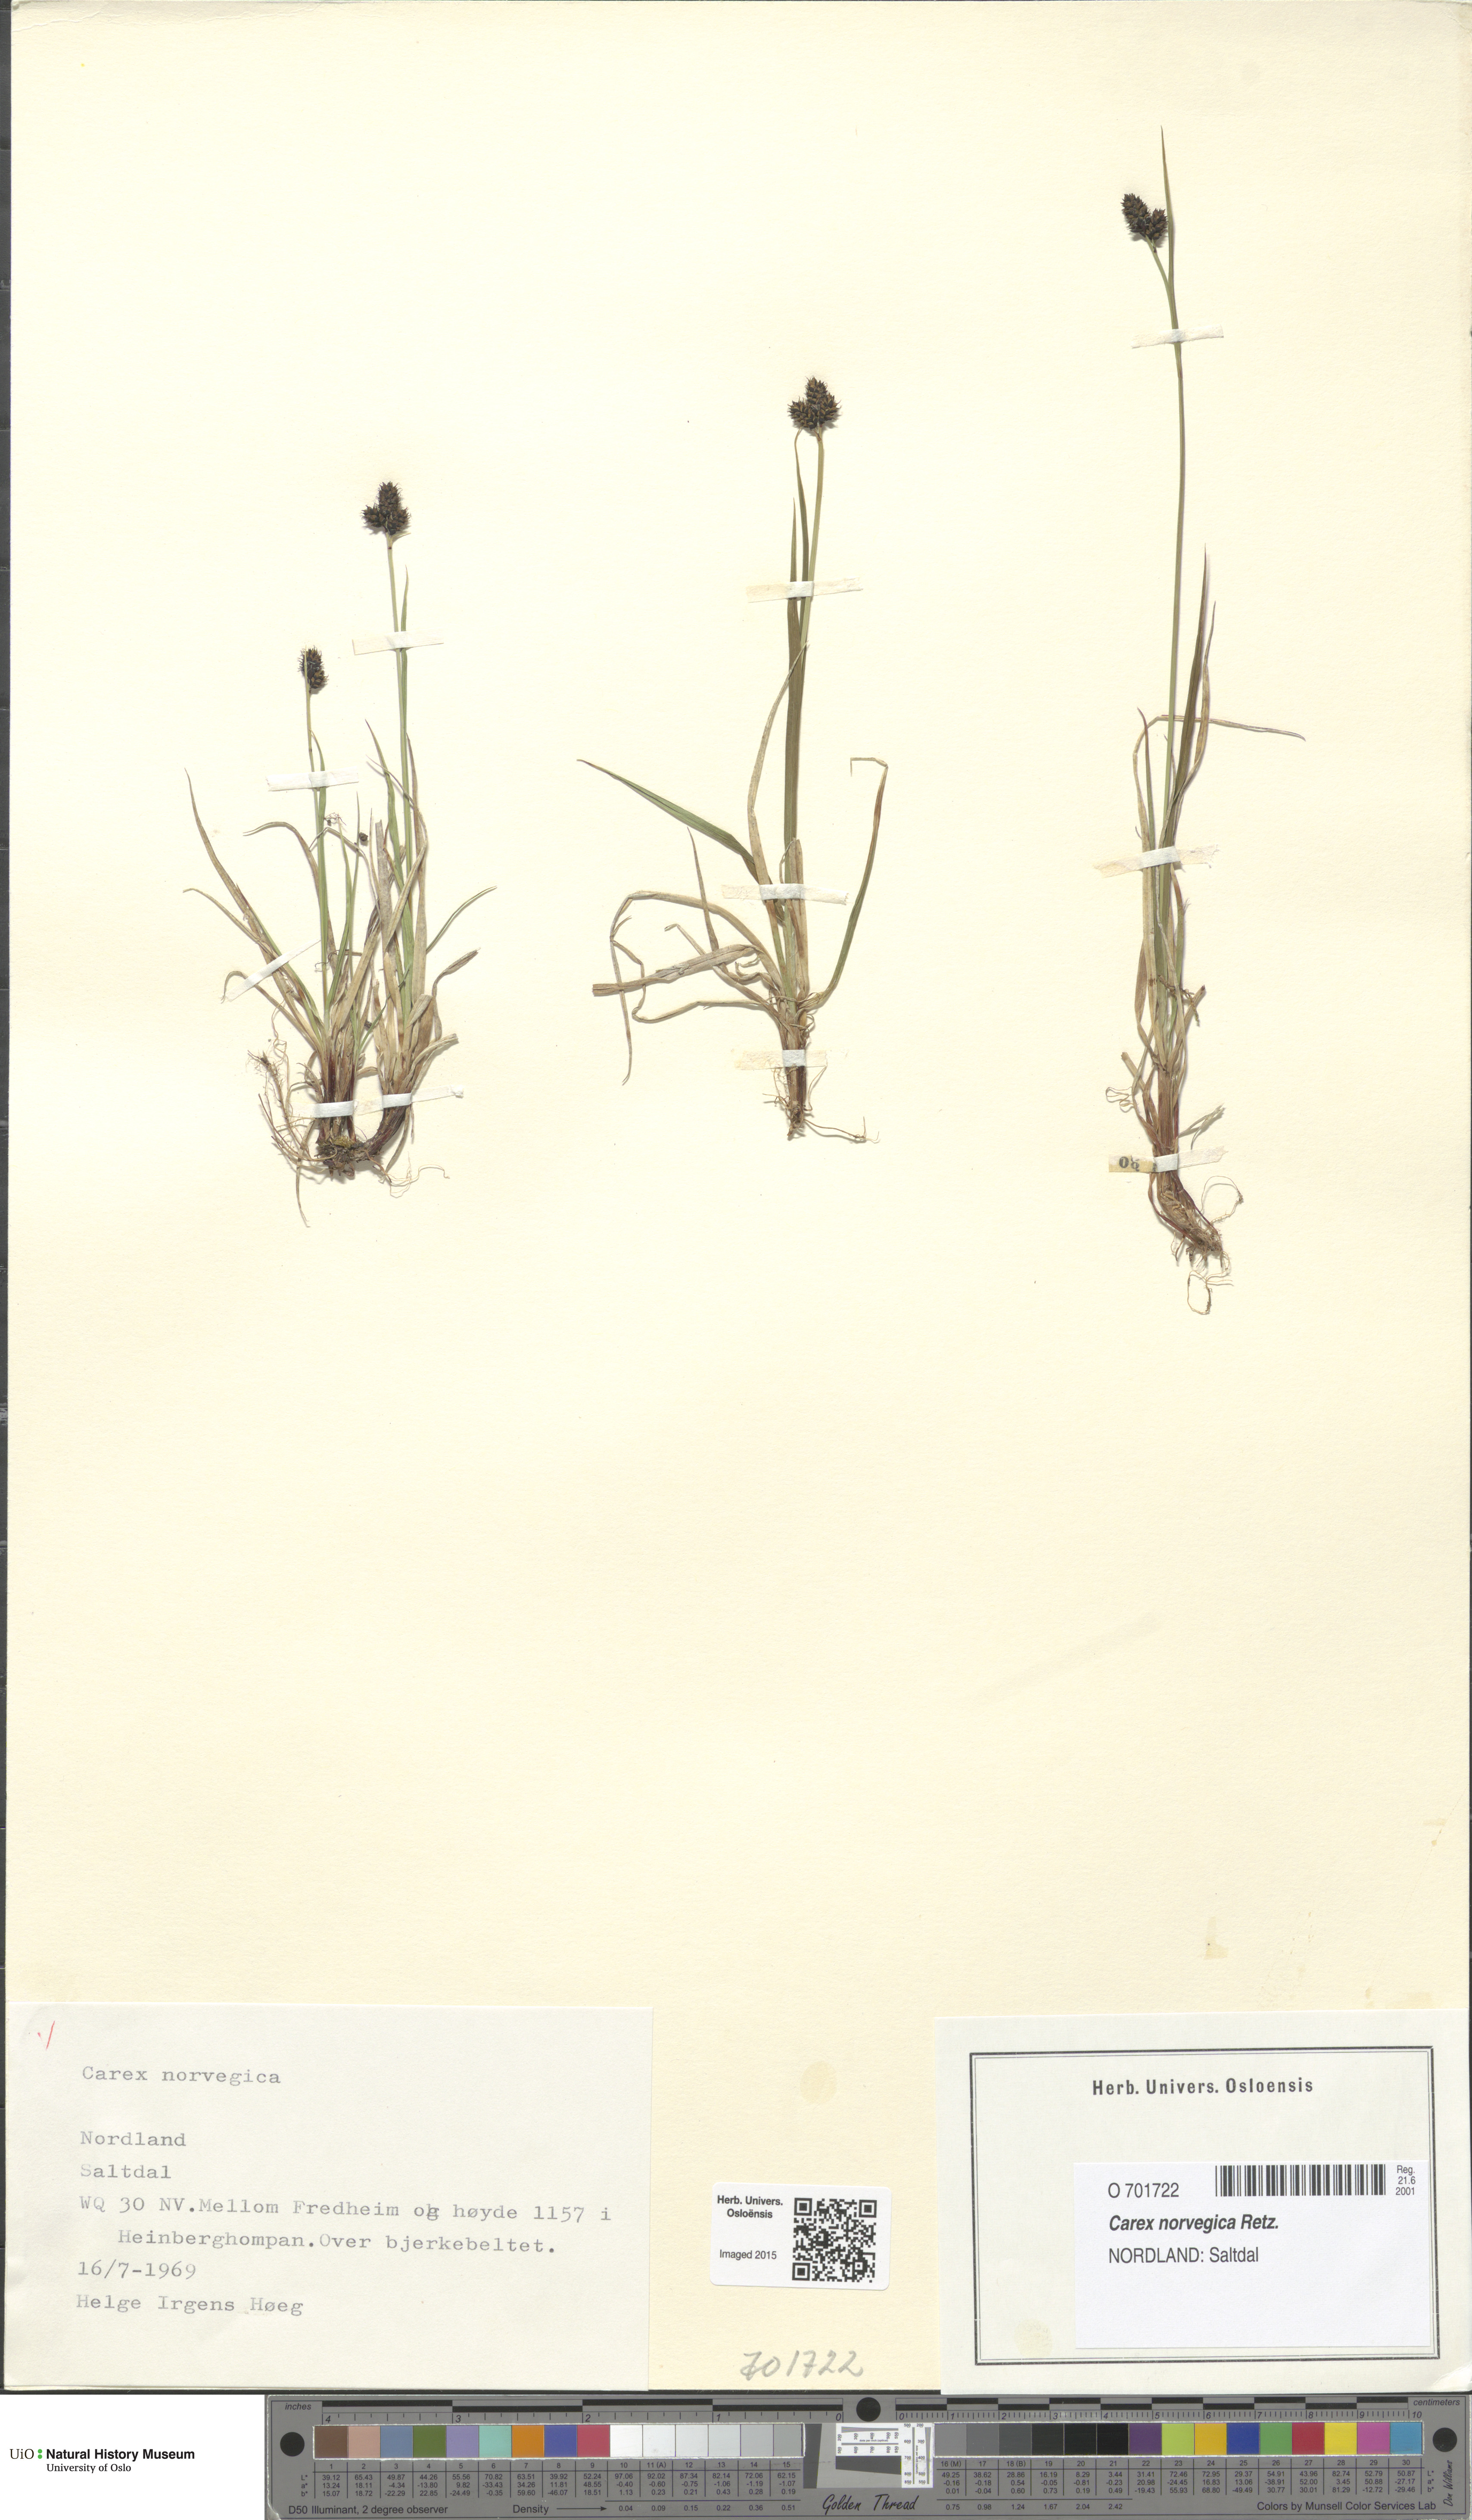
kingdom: Plantae
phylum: Tracheophyta
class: Liliopsida
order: Poales
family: Cyperaceae
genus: Carex
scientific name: Carex norvegica
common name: Close-headed alpine-sedge
